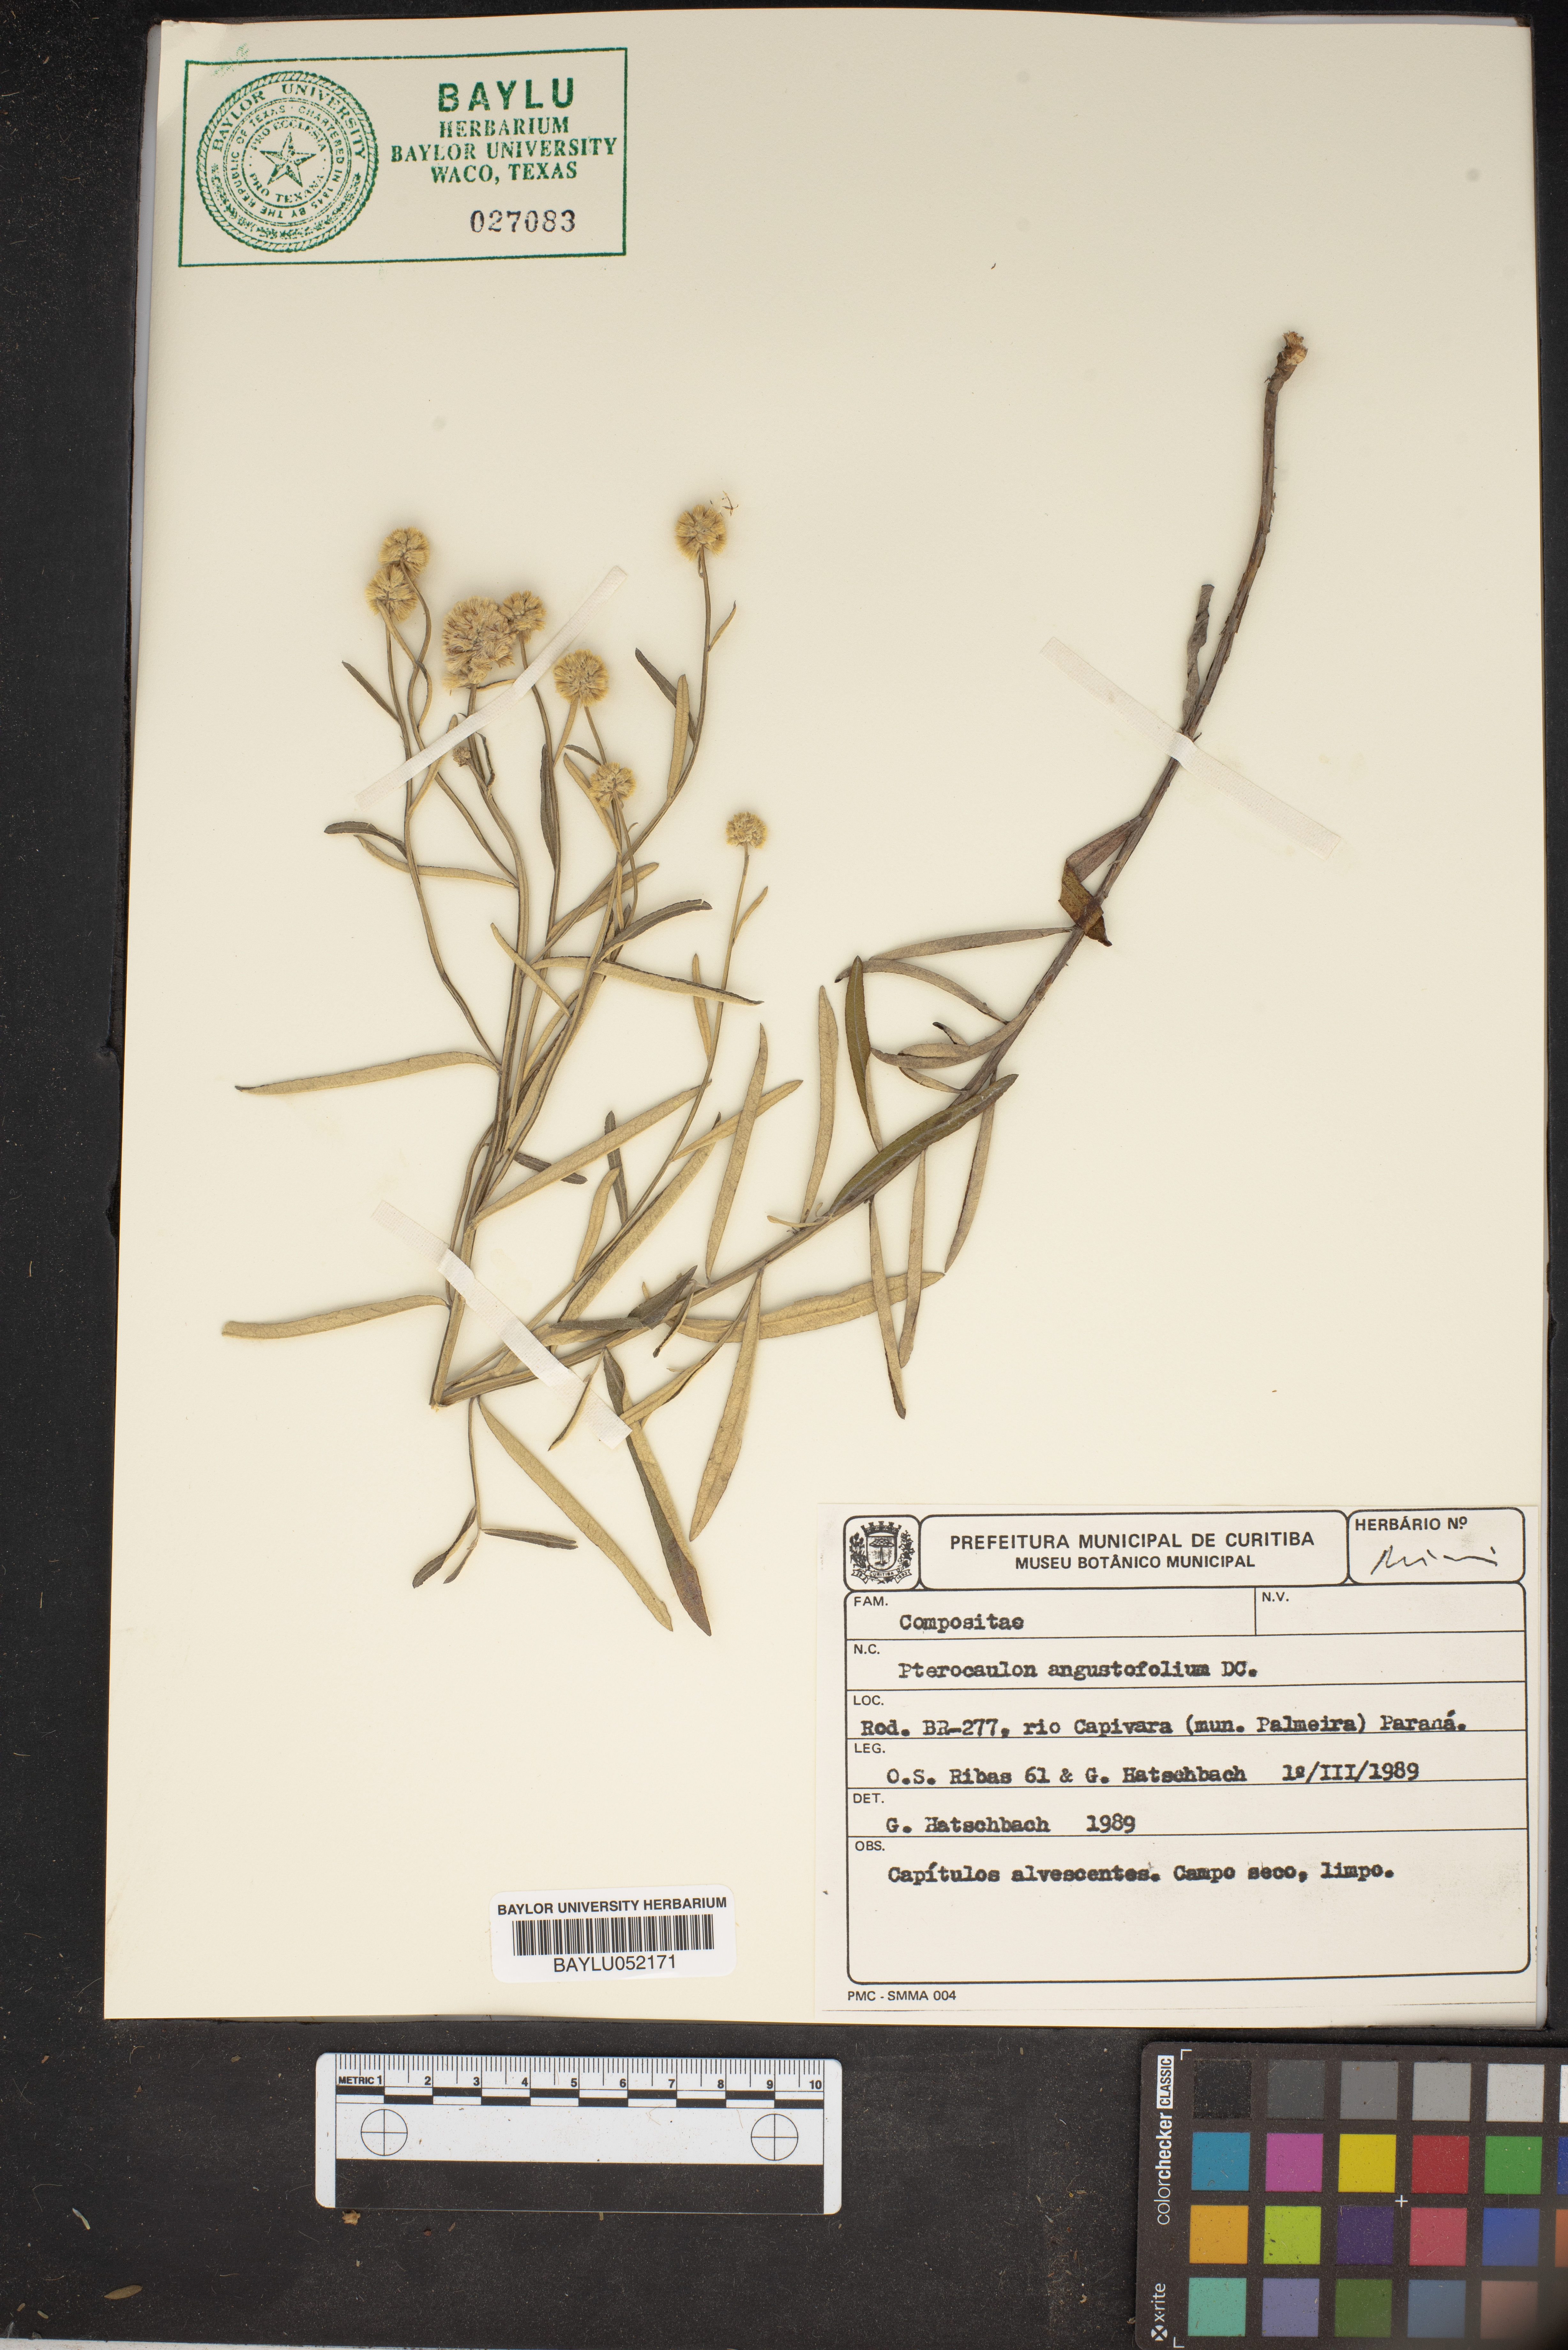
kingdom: Plantae
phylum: Tracheophyta
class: Magnoliopsida
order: Asterales
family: Asteraceae
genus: Pterocaulon
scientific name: Pterocaulon angustifolium
